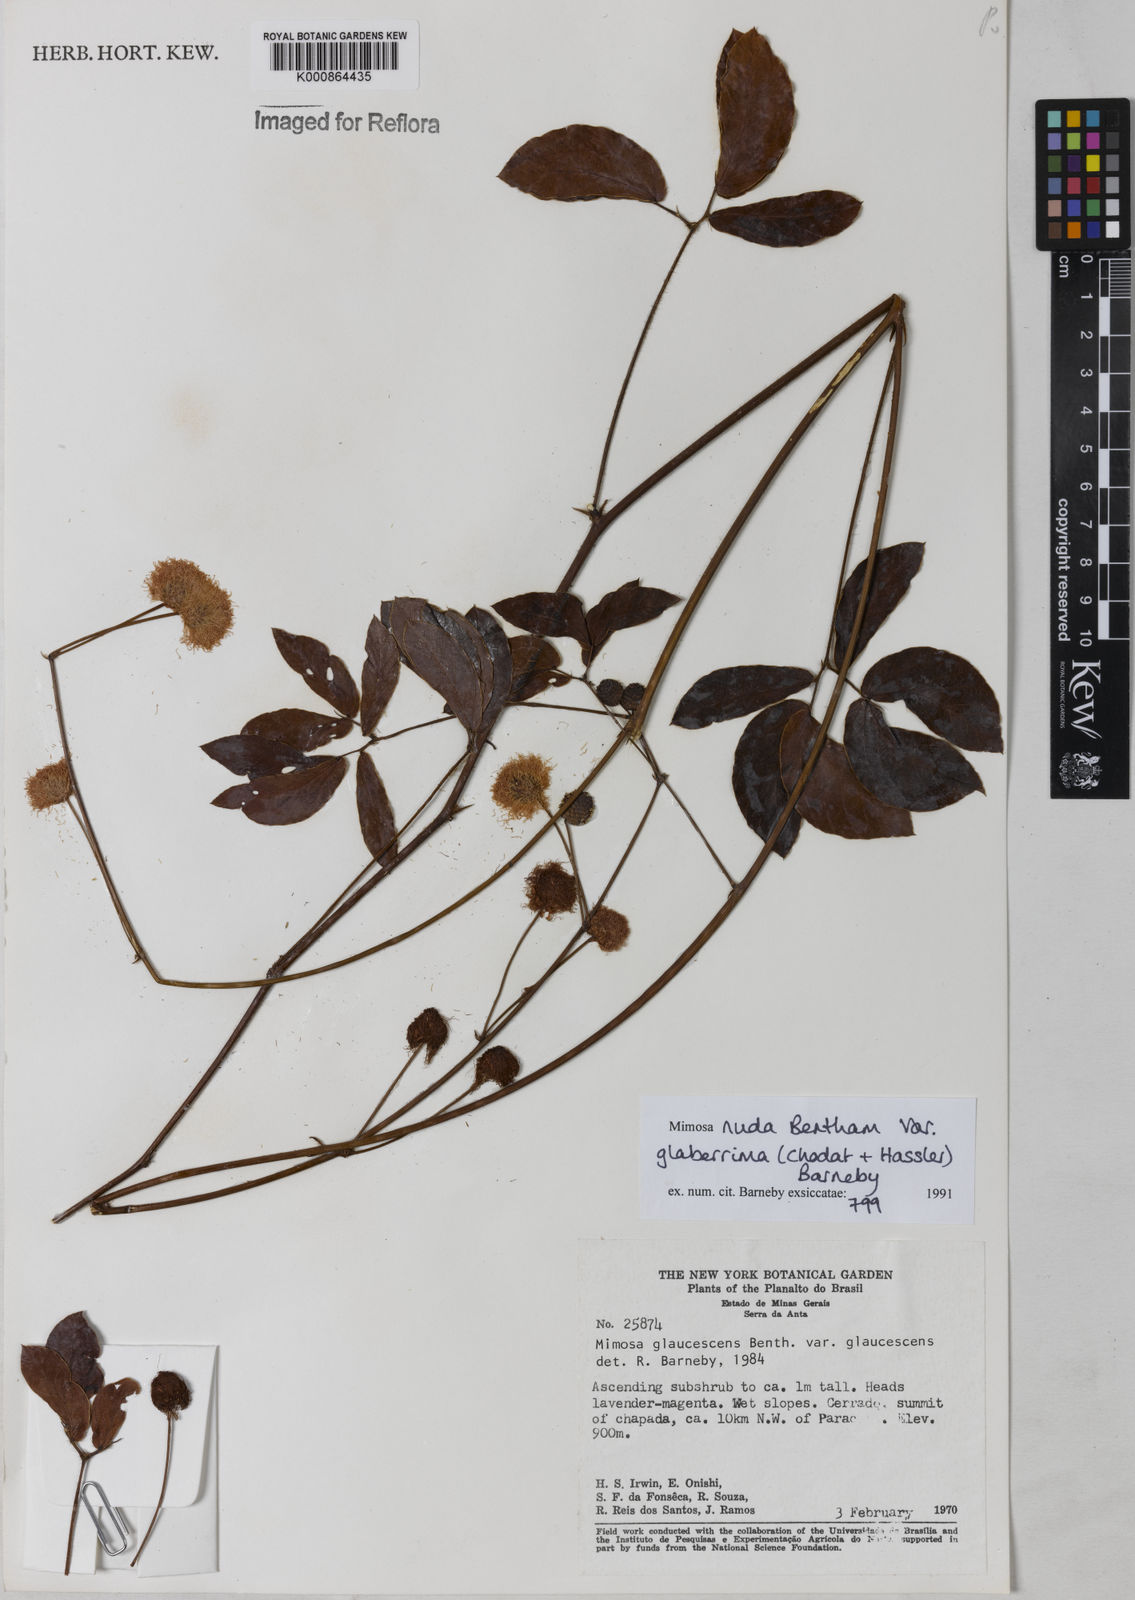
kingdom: Plantae
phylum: Tracheophyta
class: Magnoliopsida
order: Fabales
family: Fabaceae
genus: Mimosa
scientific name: Mimosa debilis
